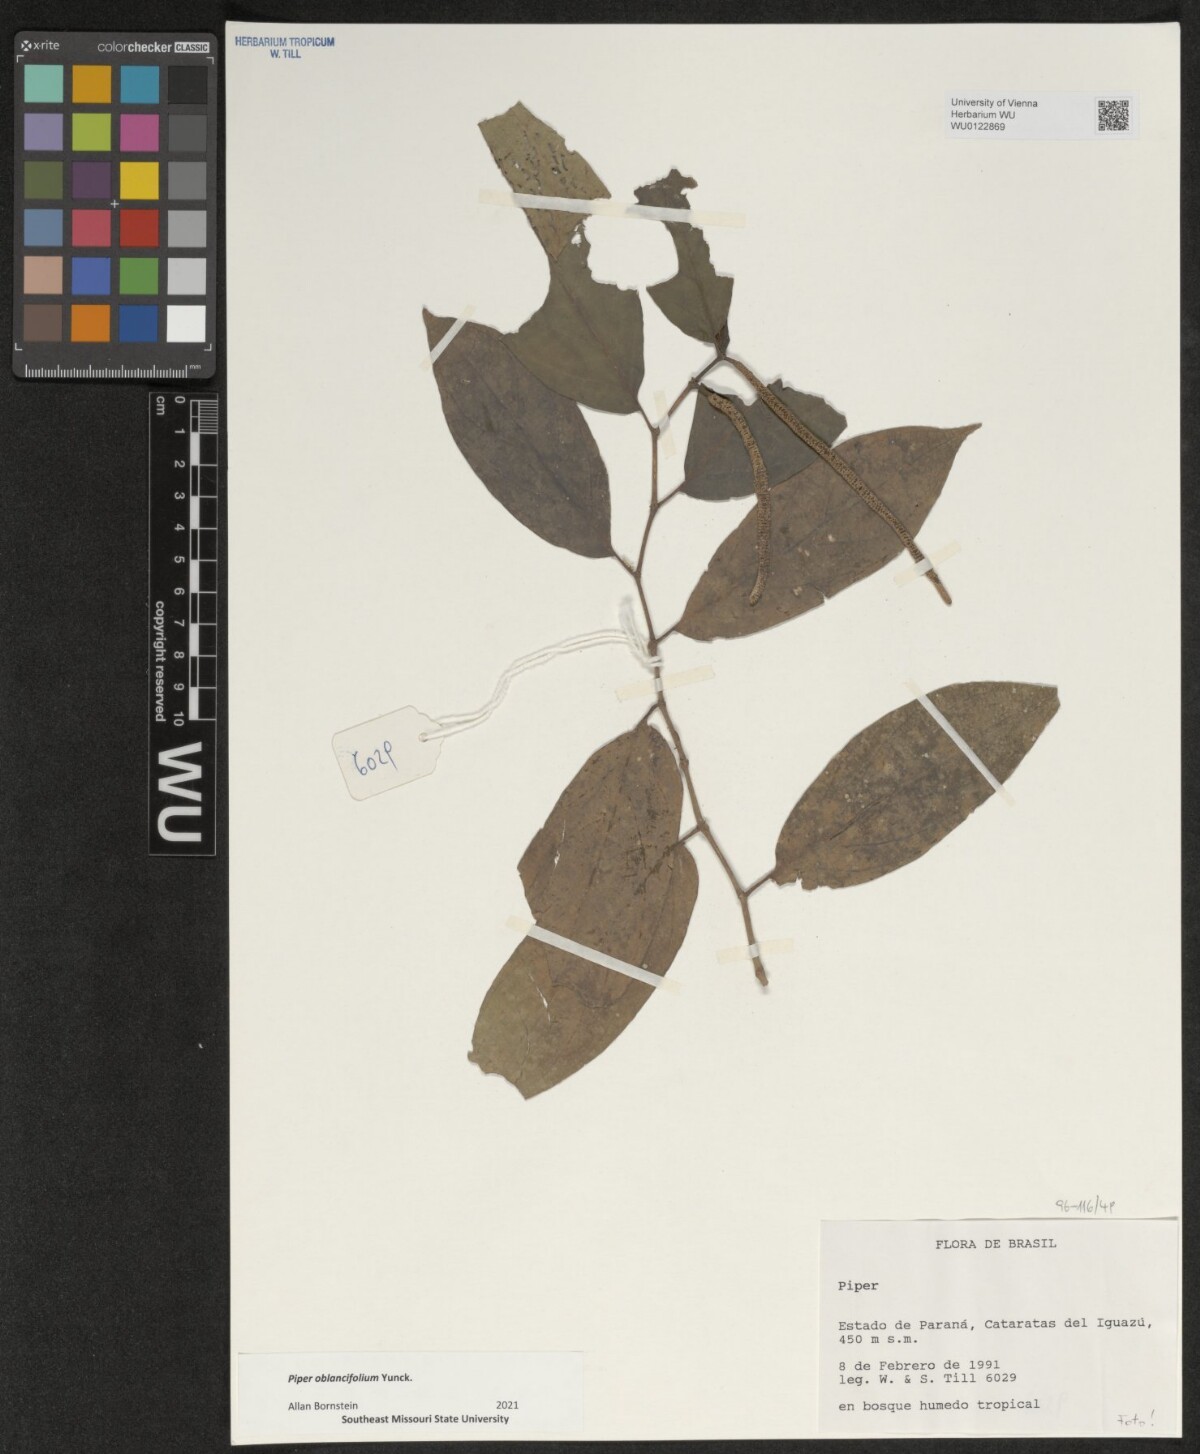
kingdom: Plantae
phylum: Tracheophyta
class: Magnoliopsida
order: Piperales
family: Piperaceae
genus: Piper
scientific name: Piper oblancifolium
